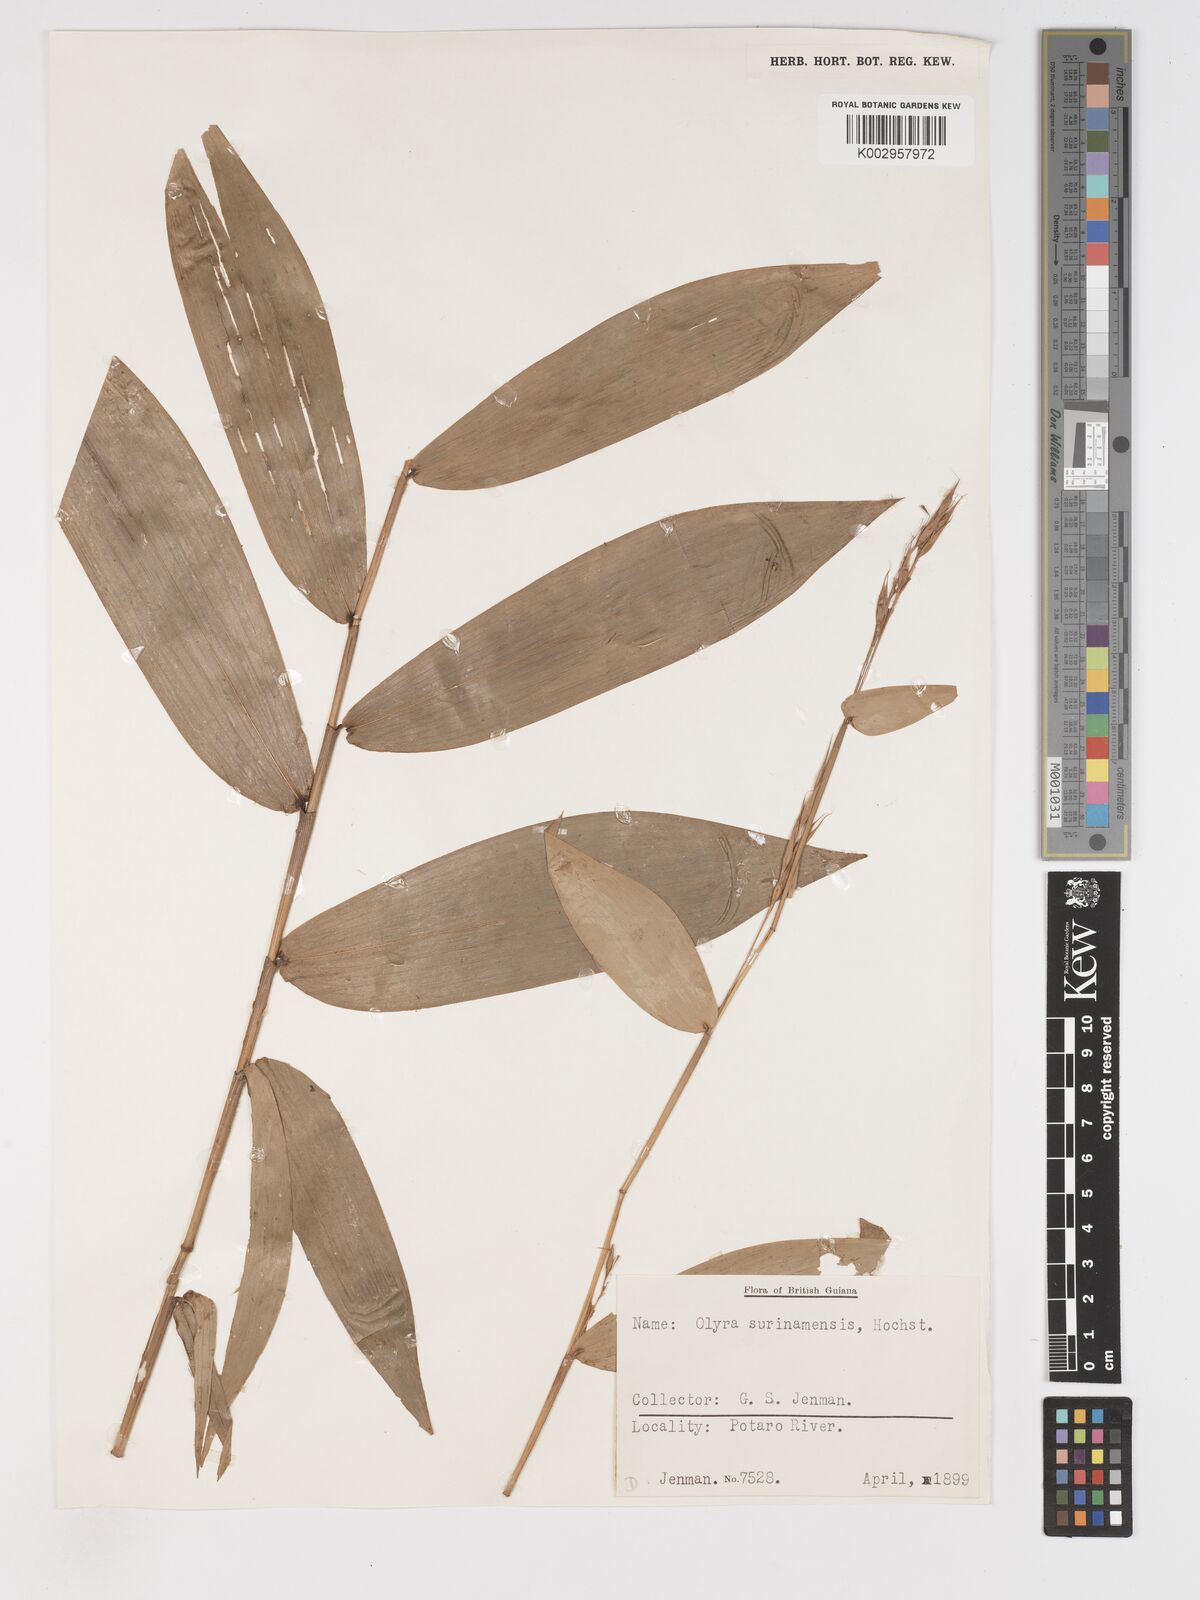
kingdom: Plantae
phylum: Tracheophyta
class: Liliopsida
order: Poales
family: Poaceae
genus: Olyra
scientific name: Olyra longifolia
